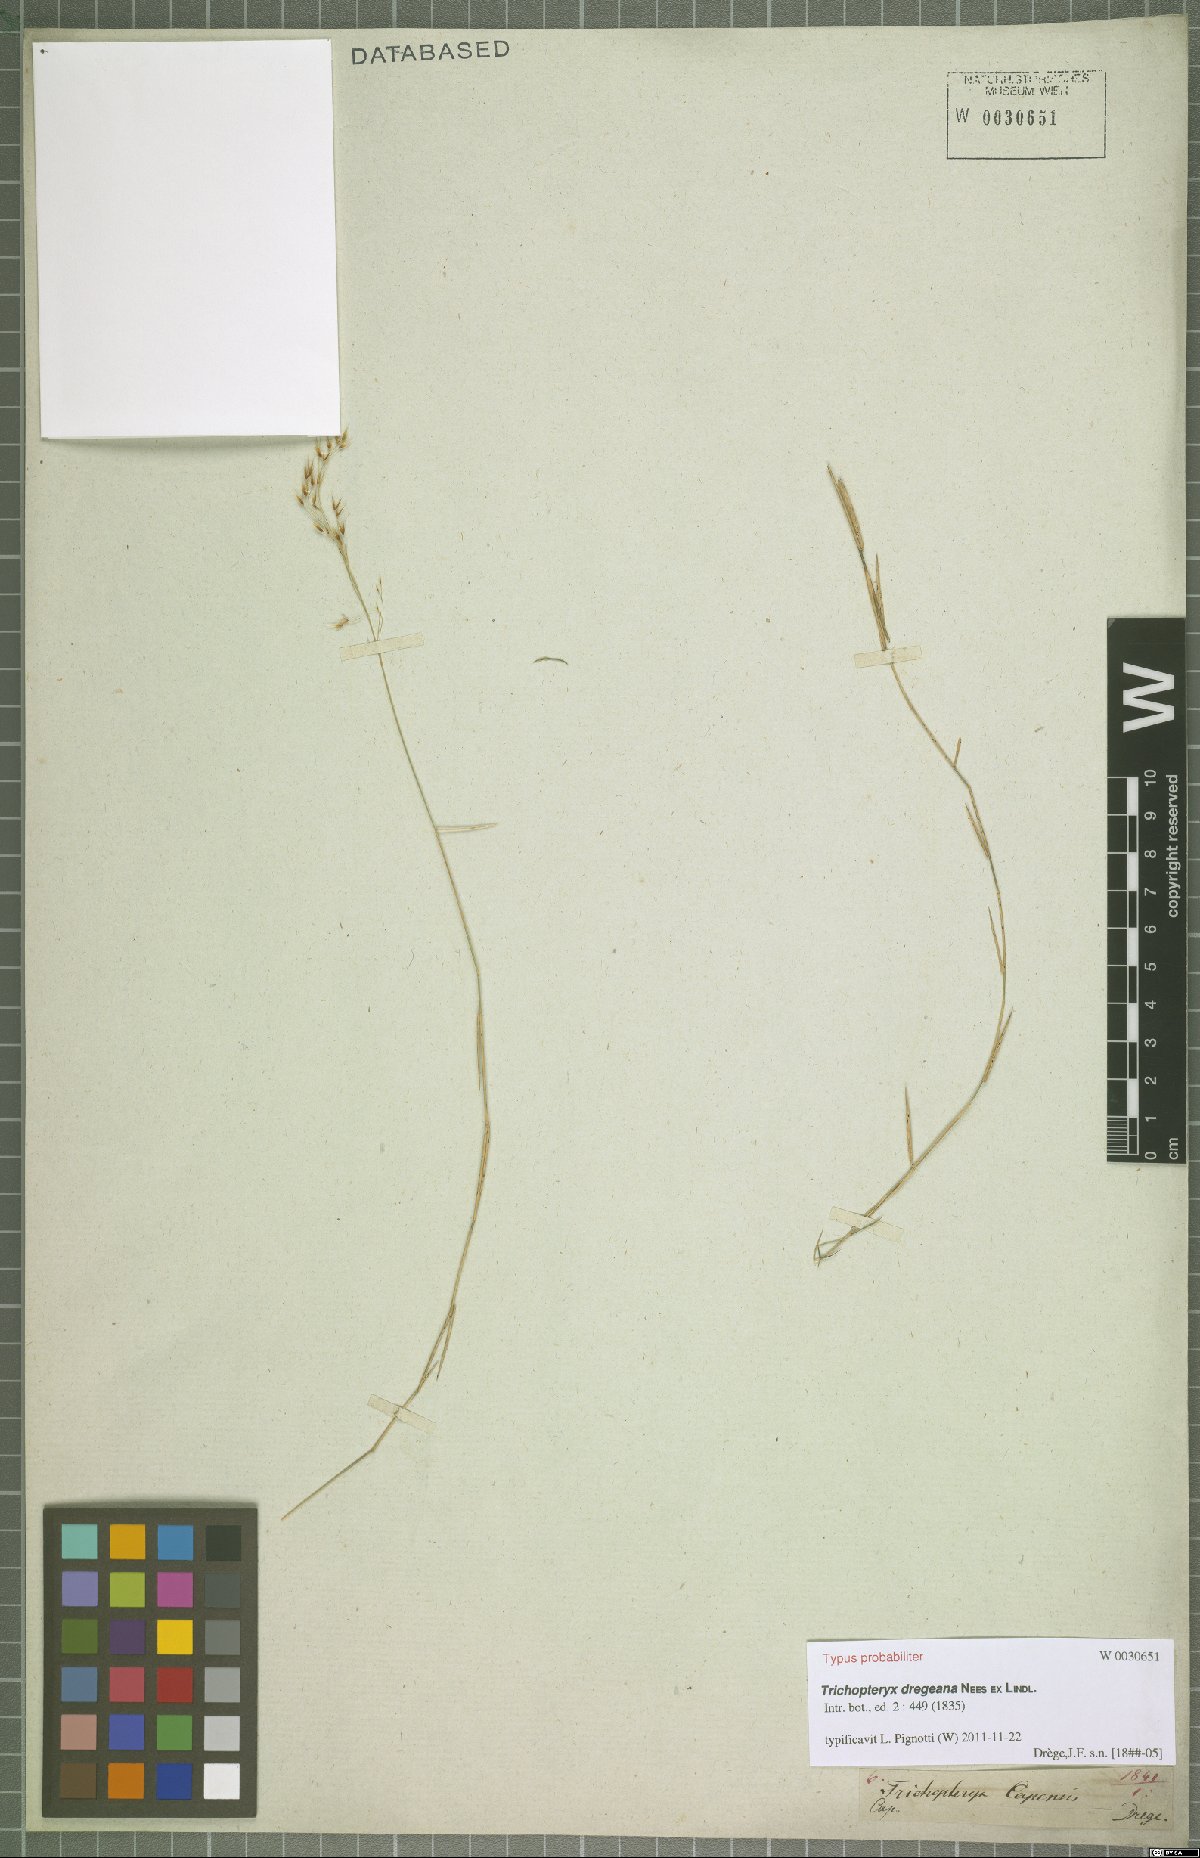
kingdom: Plantae
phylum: Tracheophyta
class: Liliopsida
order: Poales
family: Poaceae
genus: Trichopteryx
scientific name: Trichopteryx dregeana
